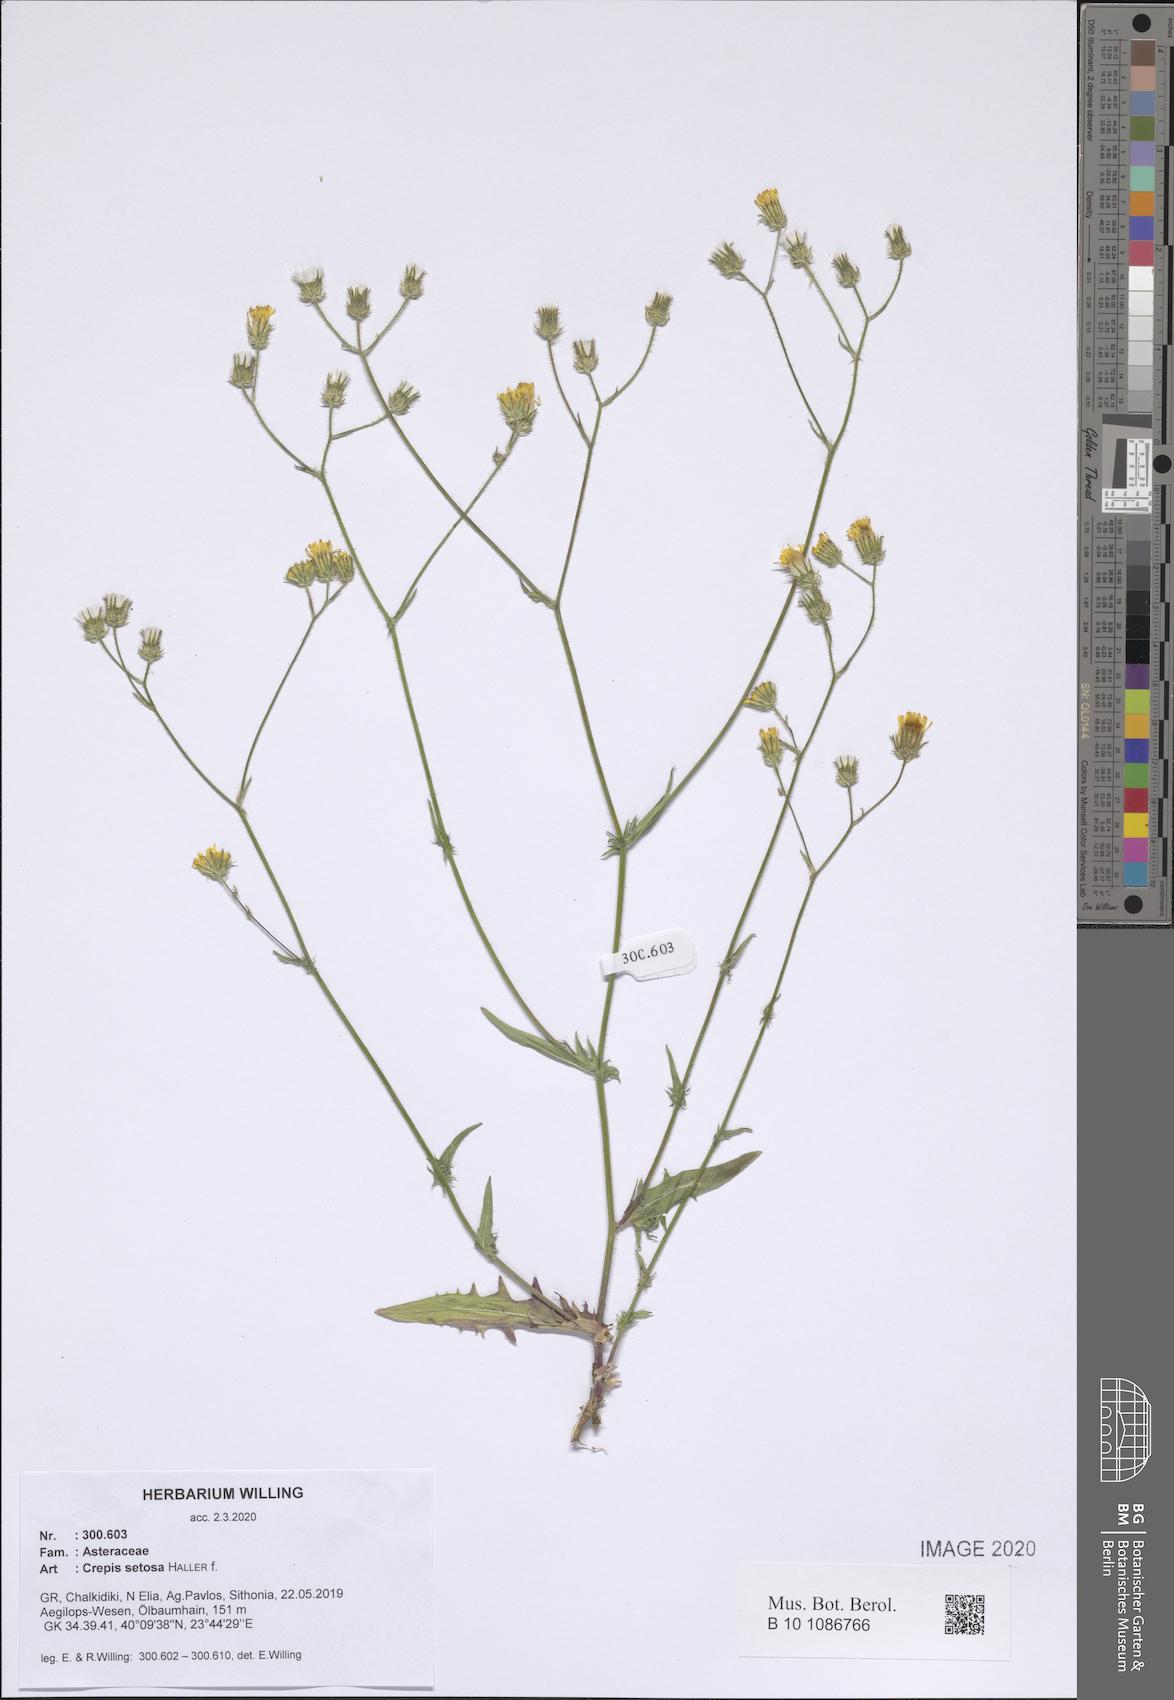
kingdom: Plantae
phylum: Tracheophyta
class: Magnoliopsida
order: Asterales
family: Asteraceae
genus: Crepis
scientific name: Crepis setosa
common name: Bristly hawk's-beard
